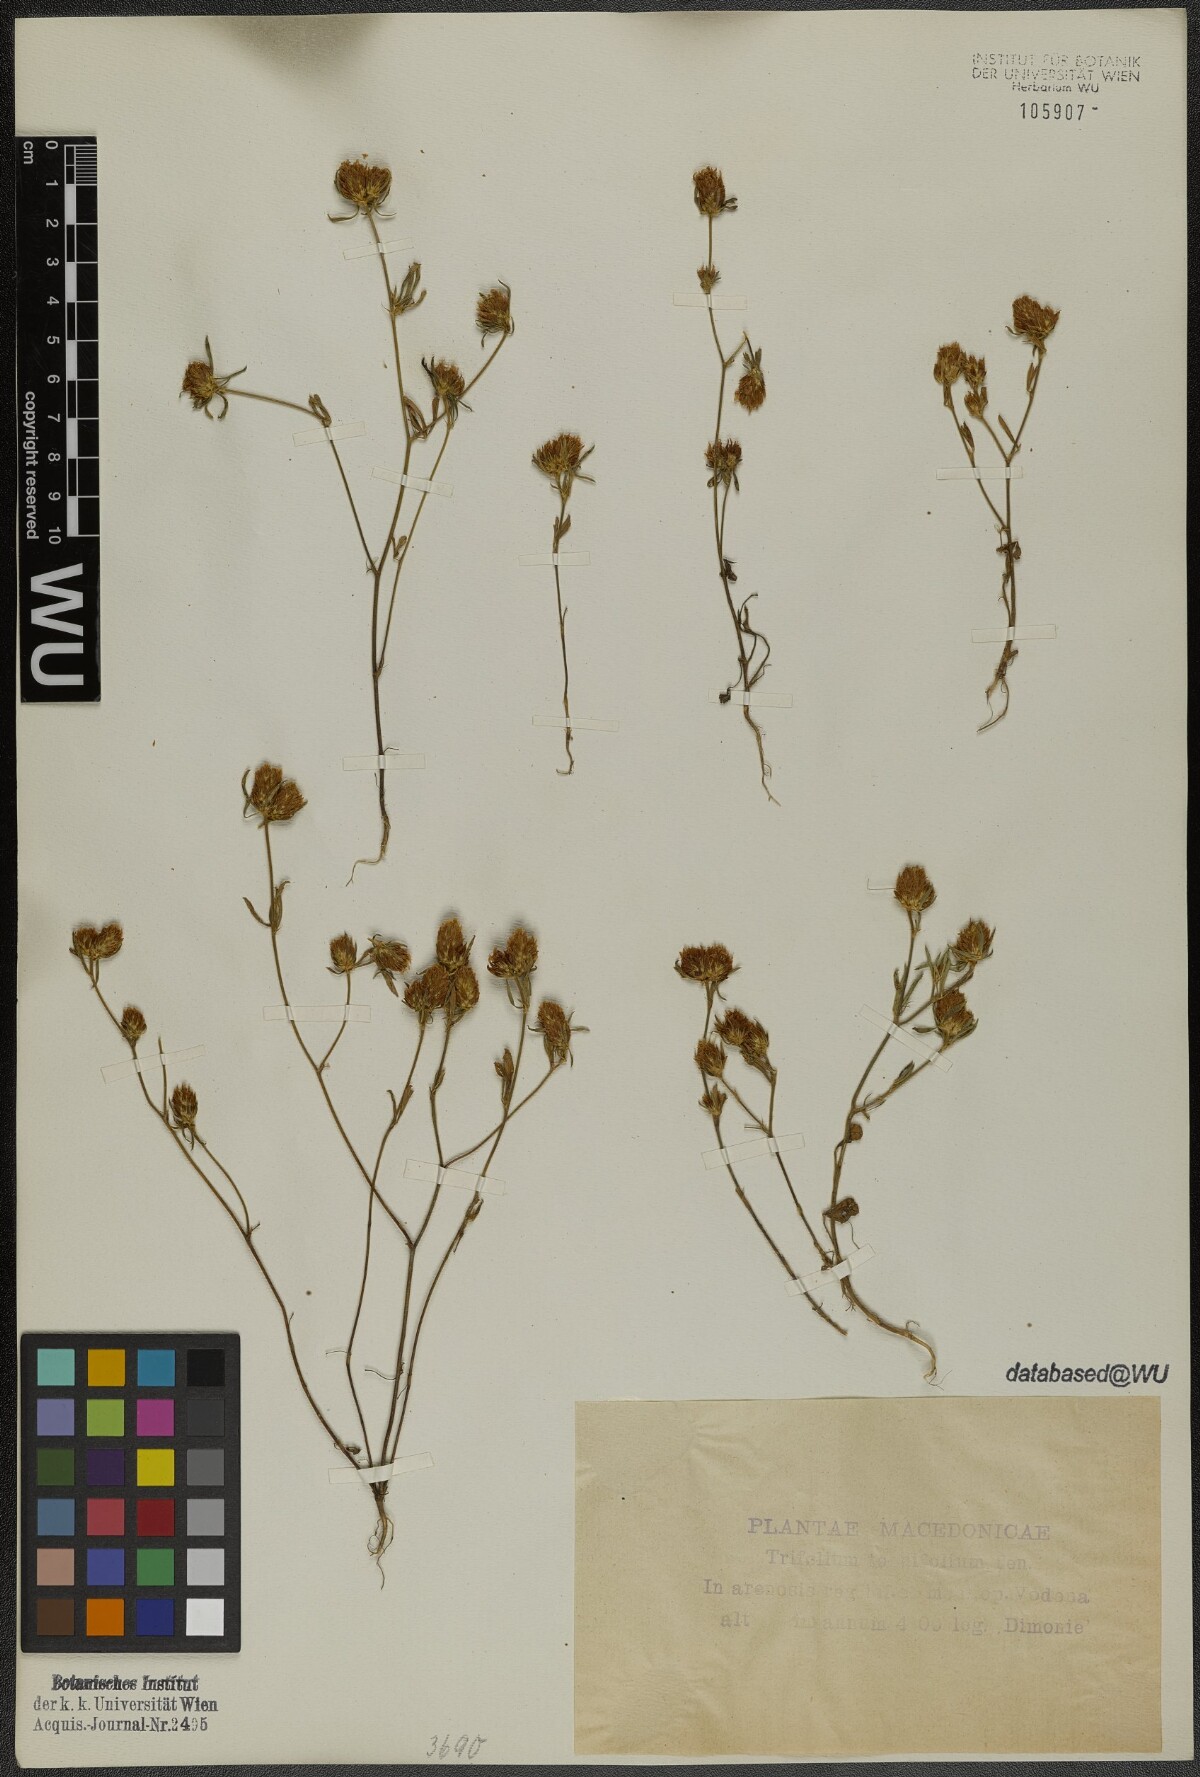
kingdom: Plantae
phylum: Tracheophyta
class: Magnoliopsida
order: Fabales
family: Fabaceae
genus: Trifolium
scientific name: Trifolium tenuifolium
